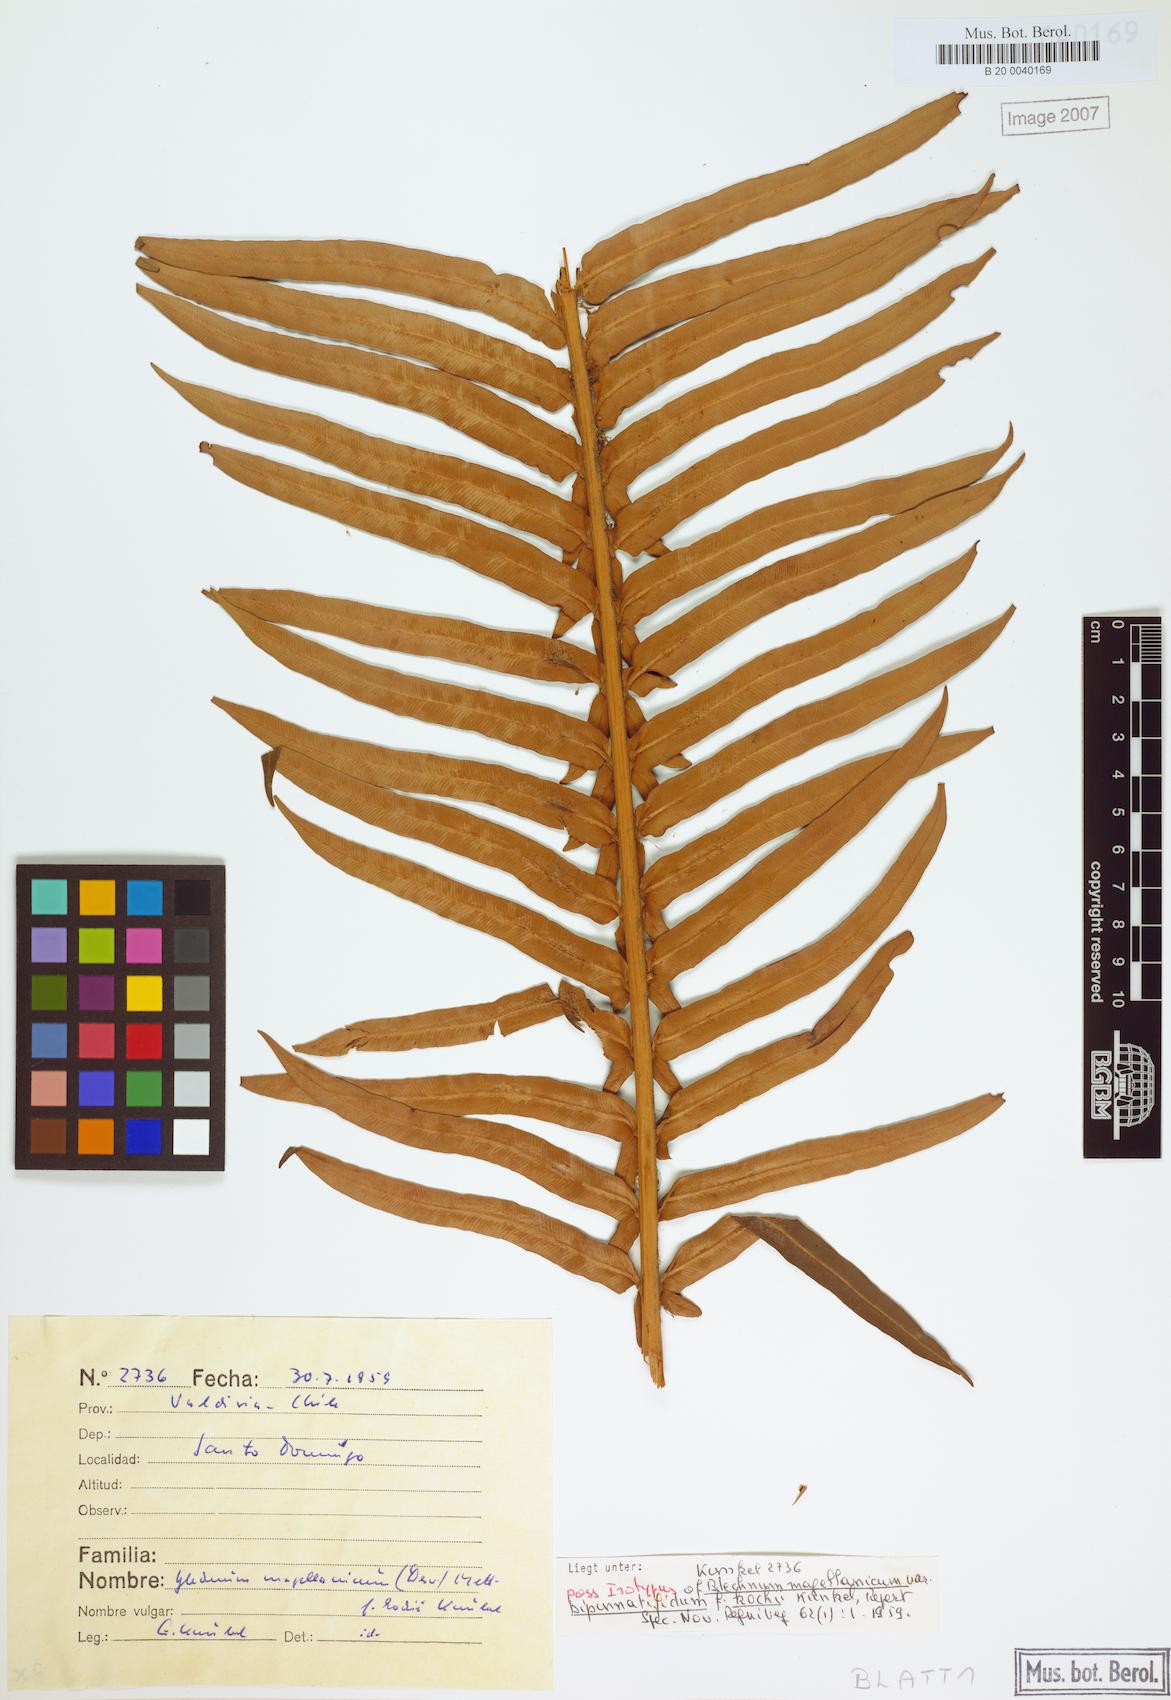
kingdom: Plantae
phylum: Tracheophyta
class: Polypodiopsida
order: Polypodiales
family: Blechnaceae
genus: Lomariocycas
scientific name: Lomariocycas magellanica
